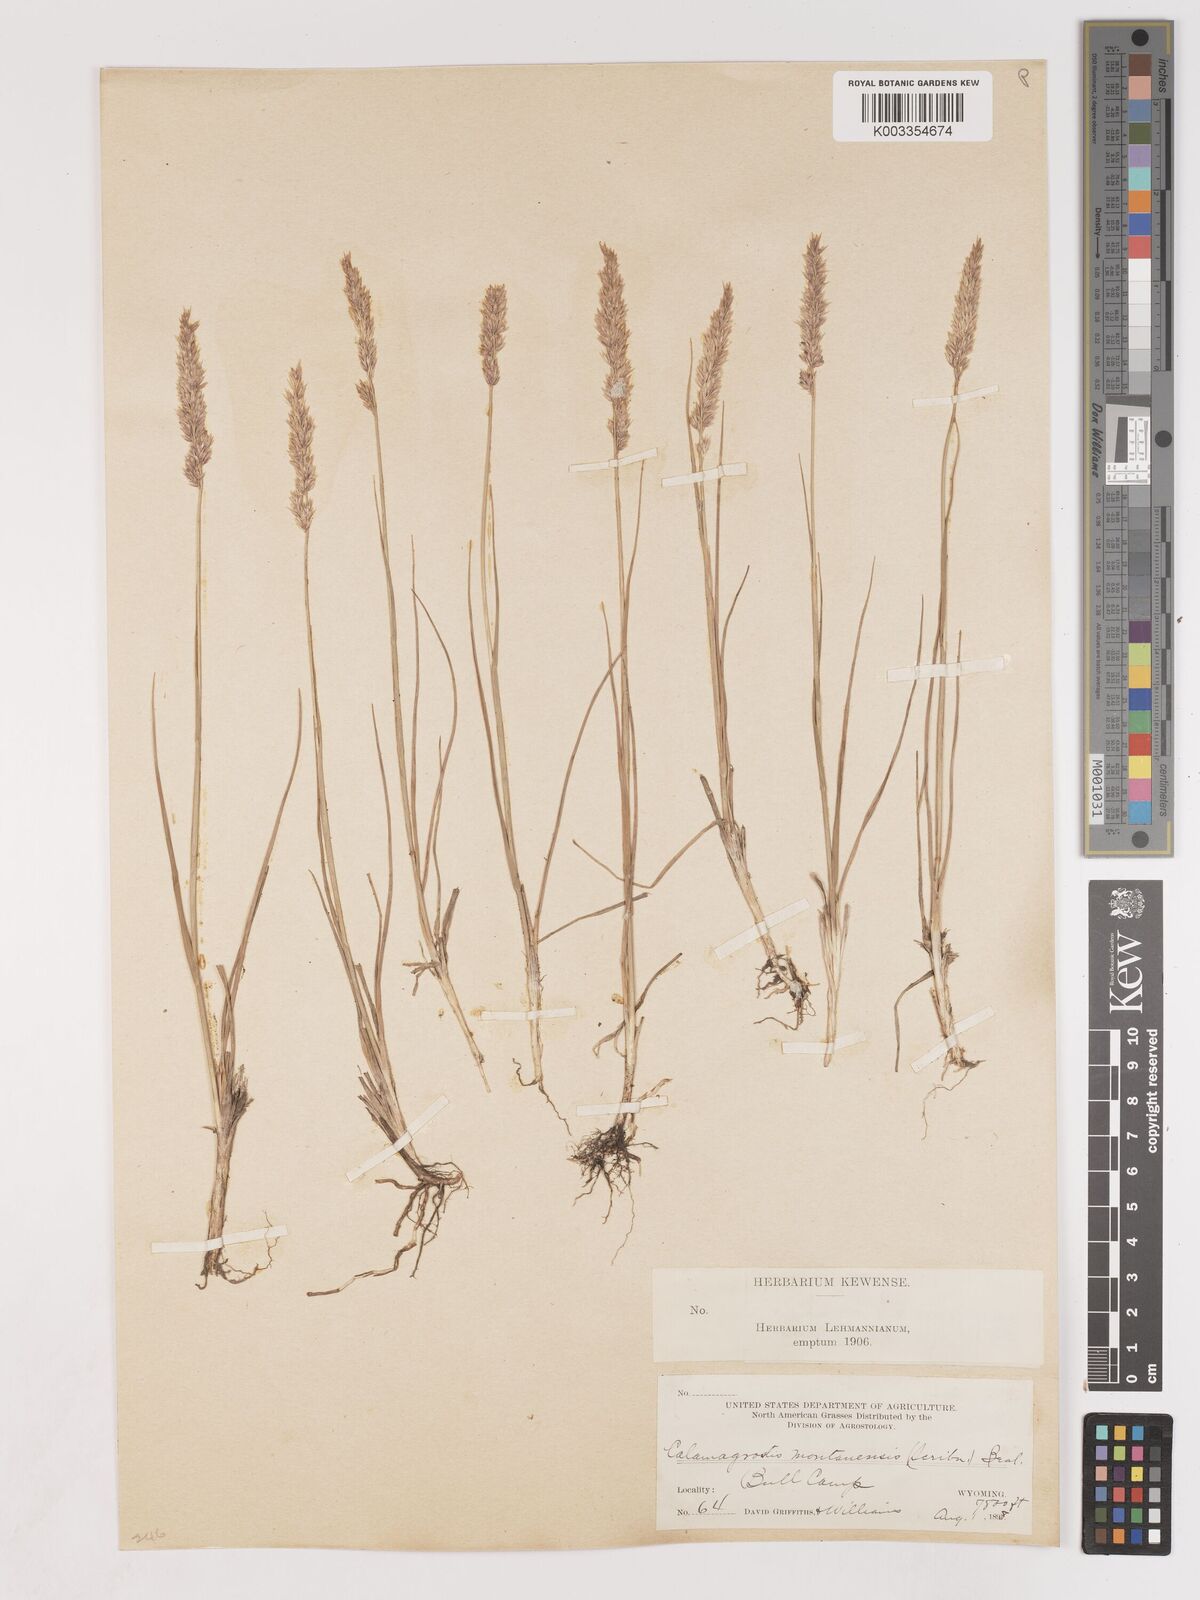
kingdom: Plantae
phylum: Tracheophyta
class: Liliopsida
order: Poales
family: Poaceae
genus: Calamagrostis
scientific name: Calamagrostis montanensis
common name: Plains reedgrass
